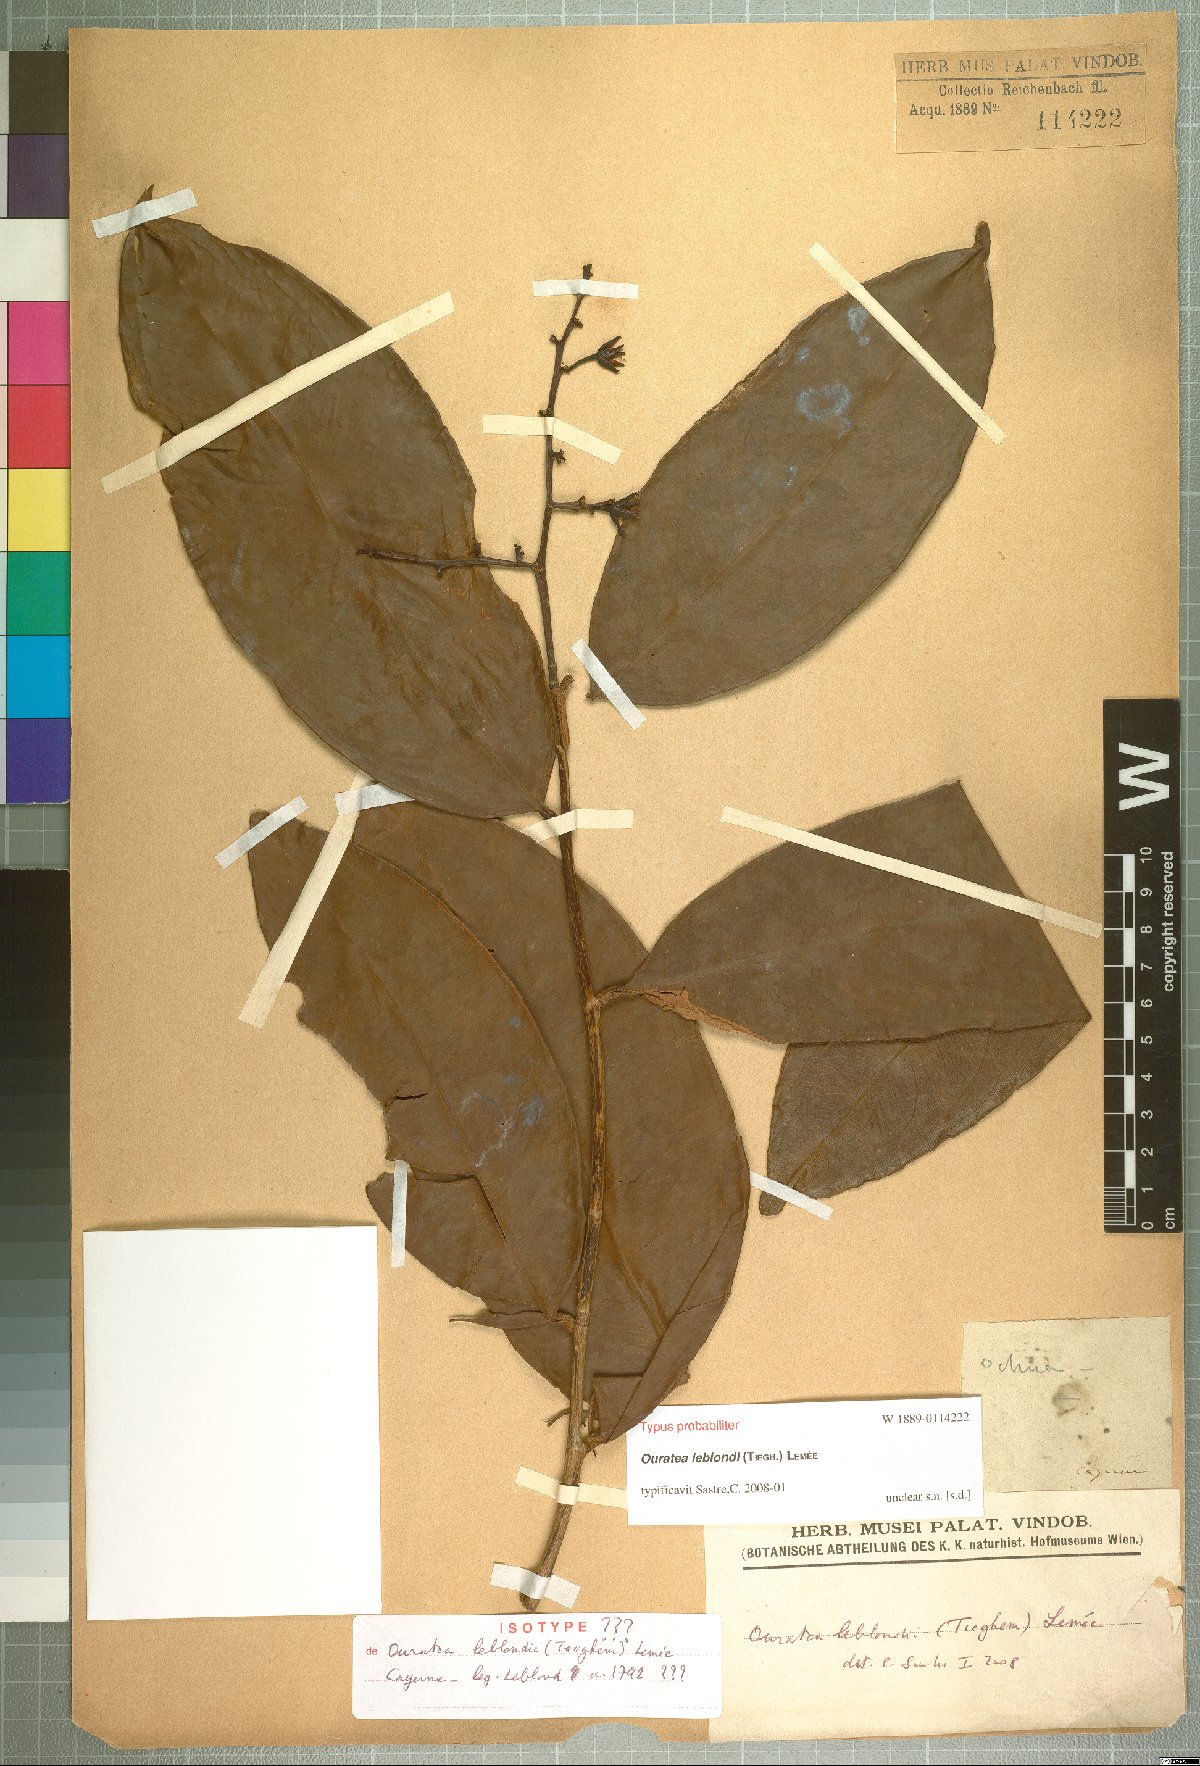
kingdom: Plantae
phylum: Tracheophyta
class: Magnoliopsida
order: Malpighiales
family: Ochnaceae
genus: Ouratea
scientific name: Ouratea leblondii
